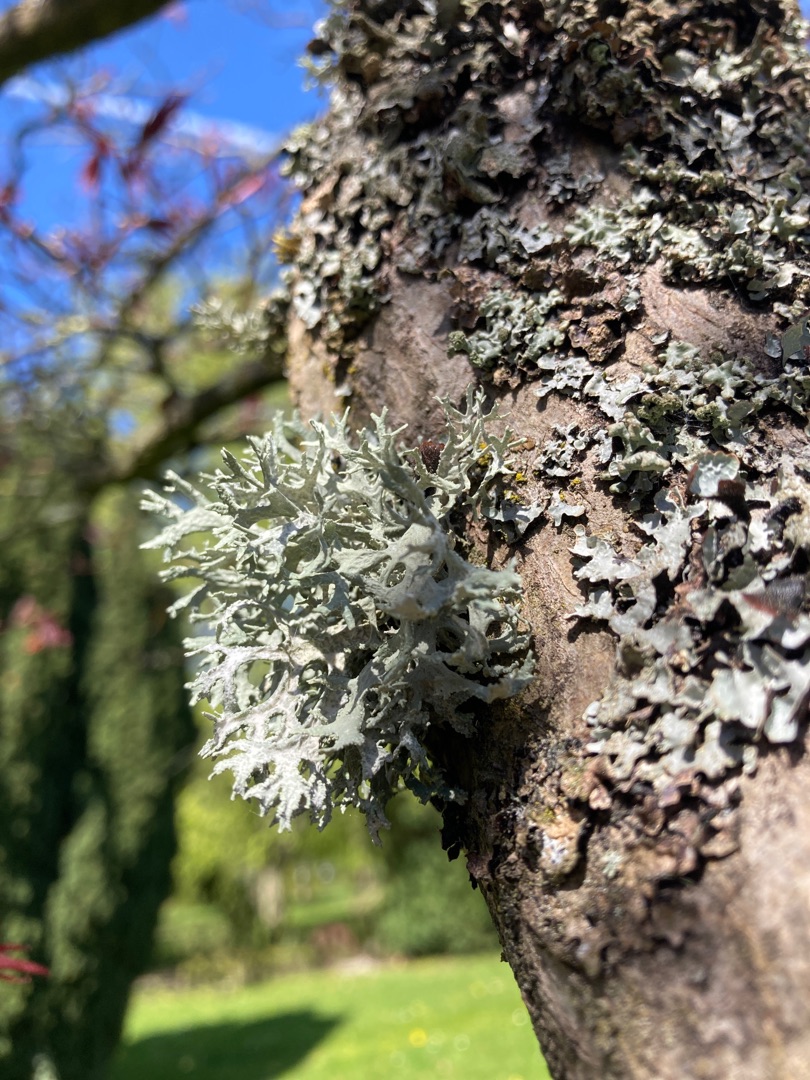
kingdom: Fungi
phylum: Ascomycota
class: Lecanoromycetes
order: Lecanorales
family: Parmeliaceae
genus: Evernia
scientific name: Evernia prunastri
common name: Almindelig slåenlav
